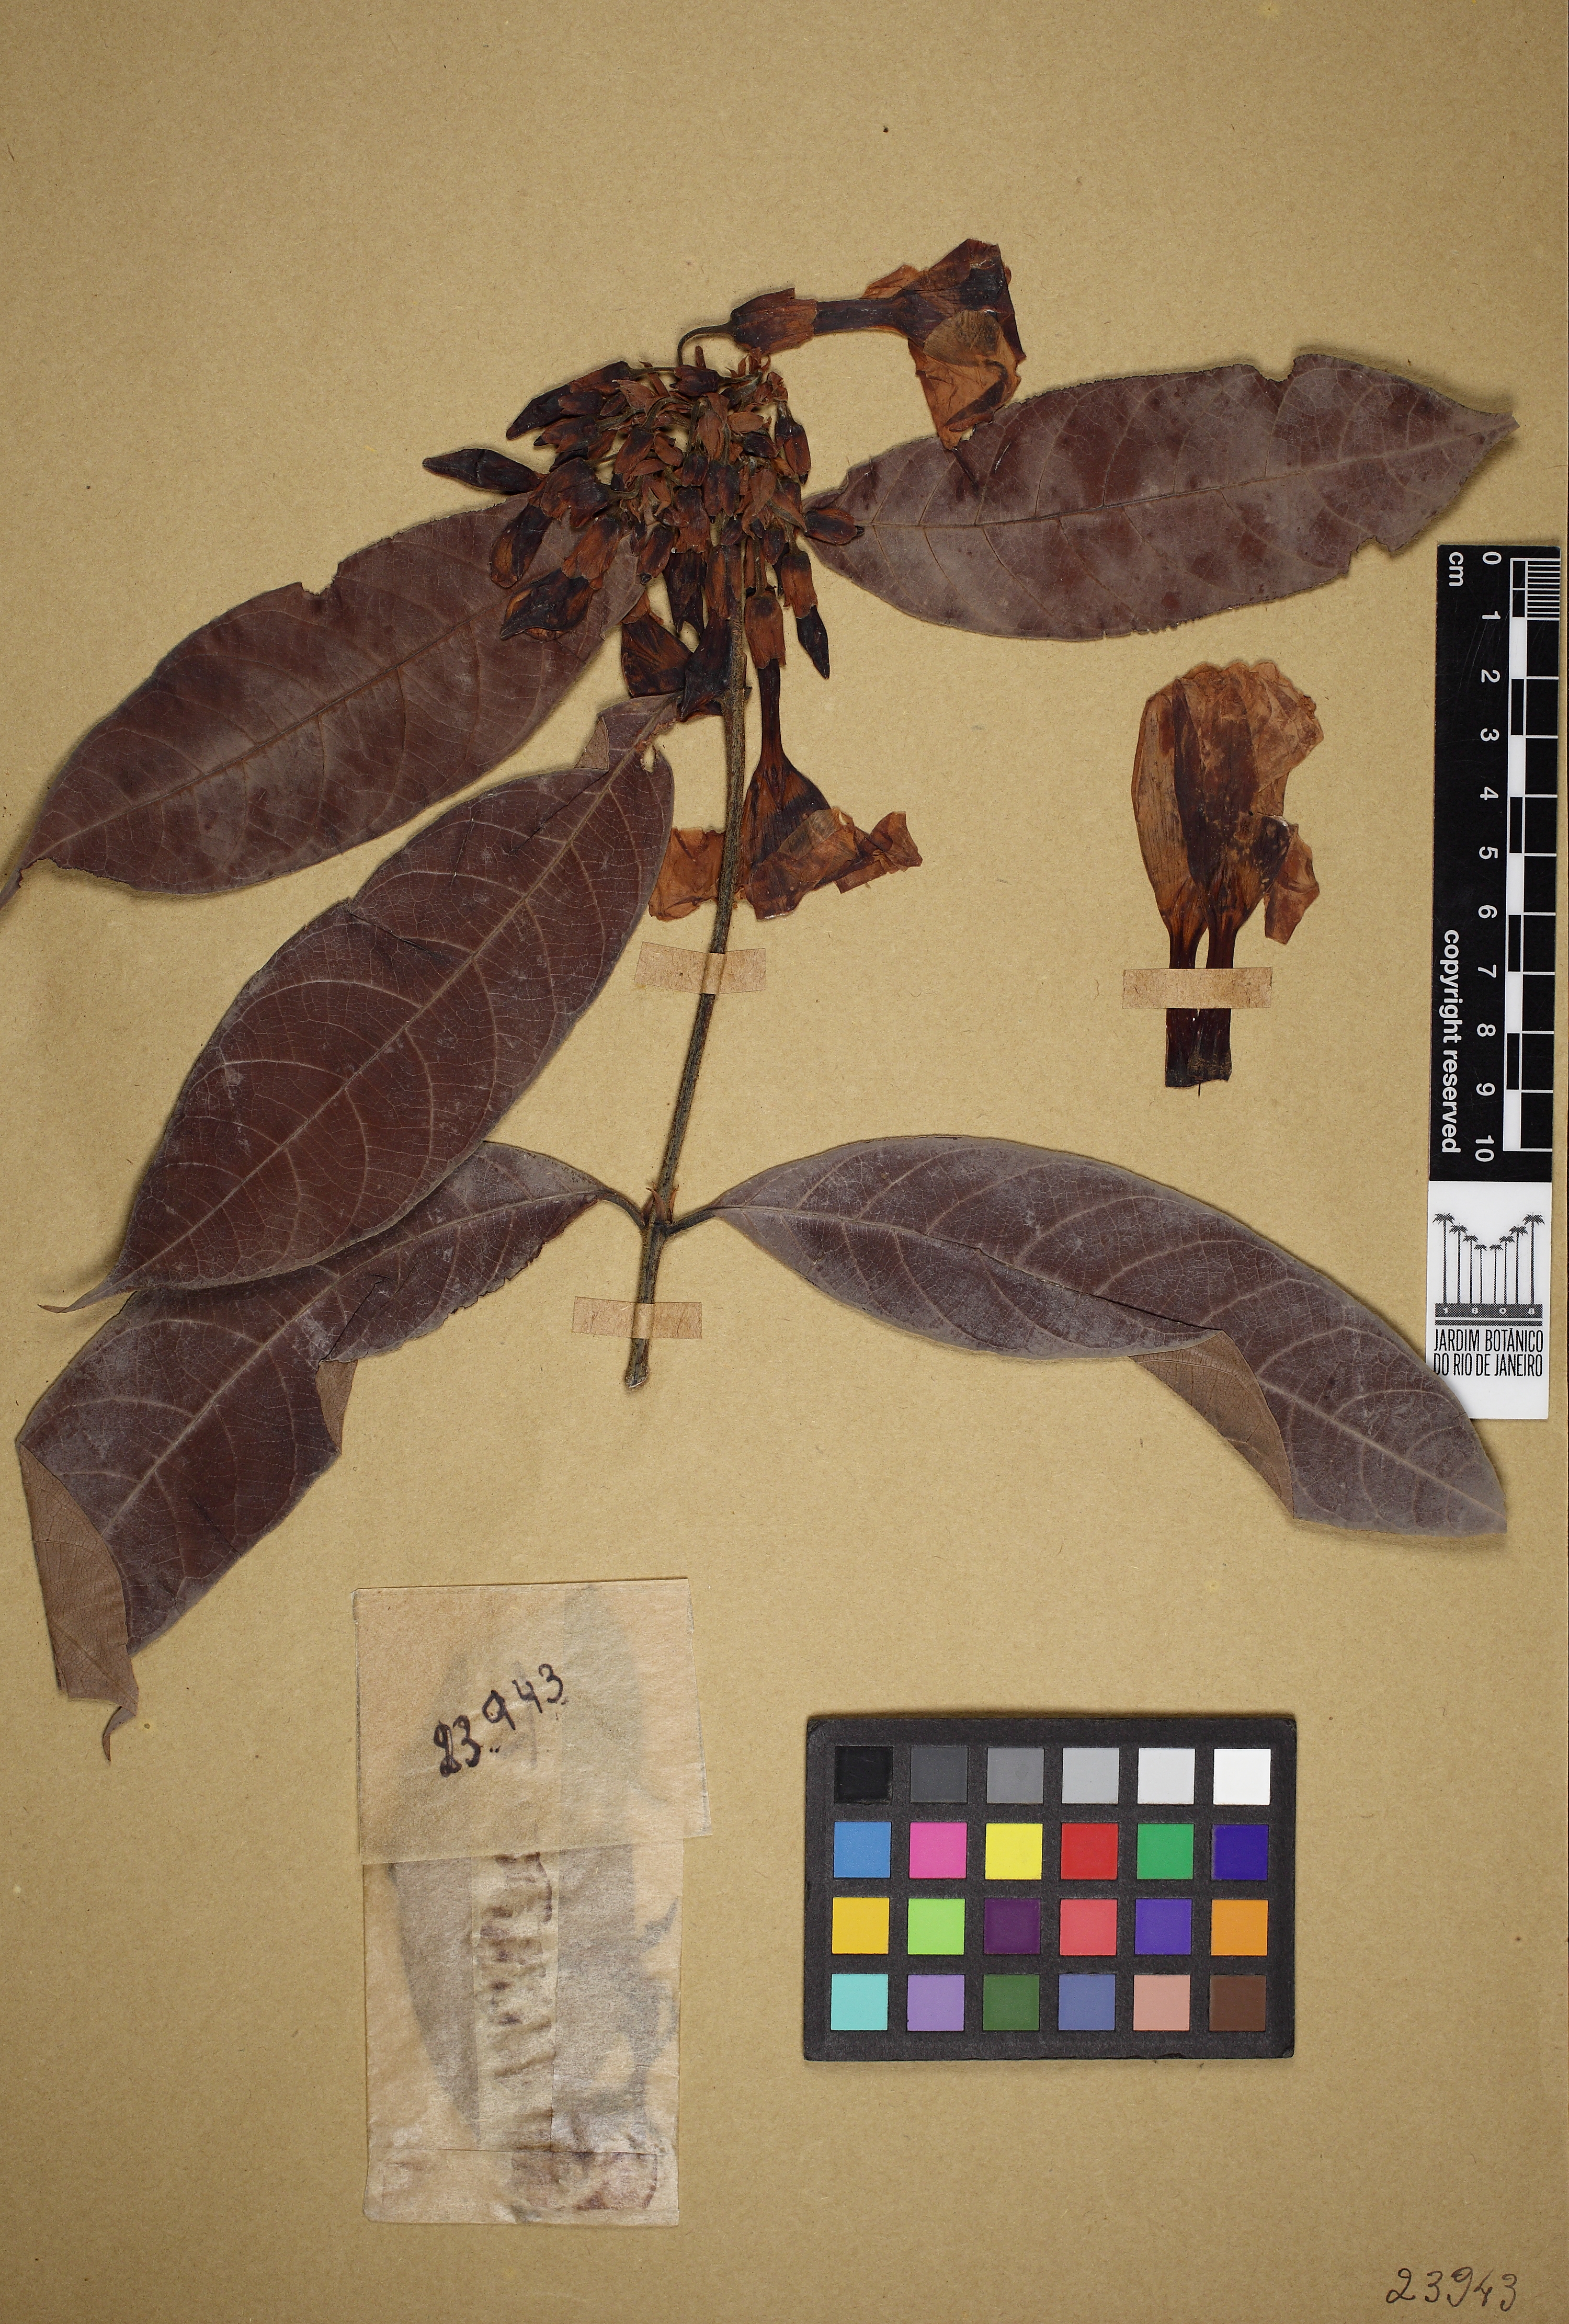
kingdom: Plantae
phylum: Tracheophyta
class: Magnoliopsida
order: Gentianales
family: Apocynaceae
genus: Odontadenia
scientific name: Odontadenia lutea
